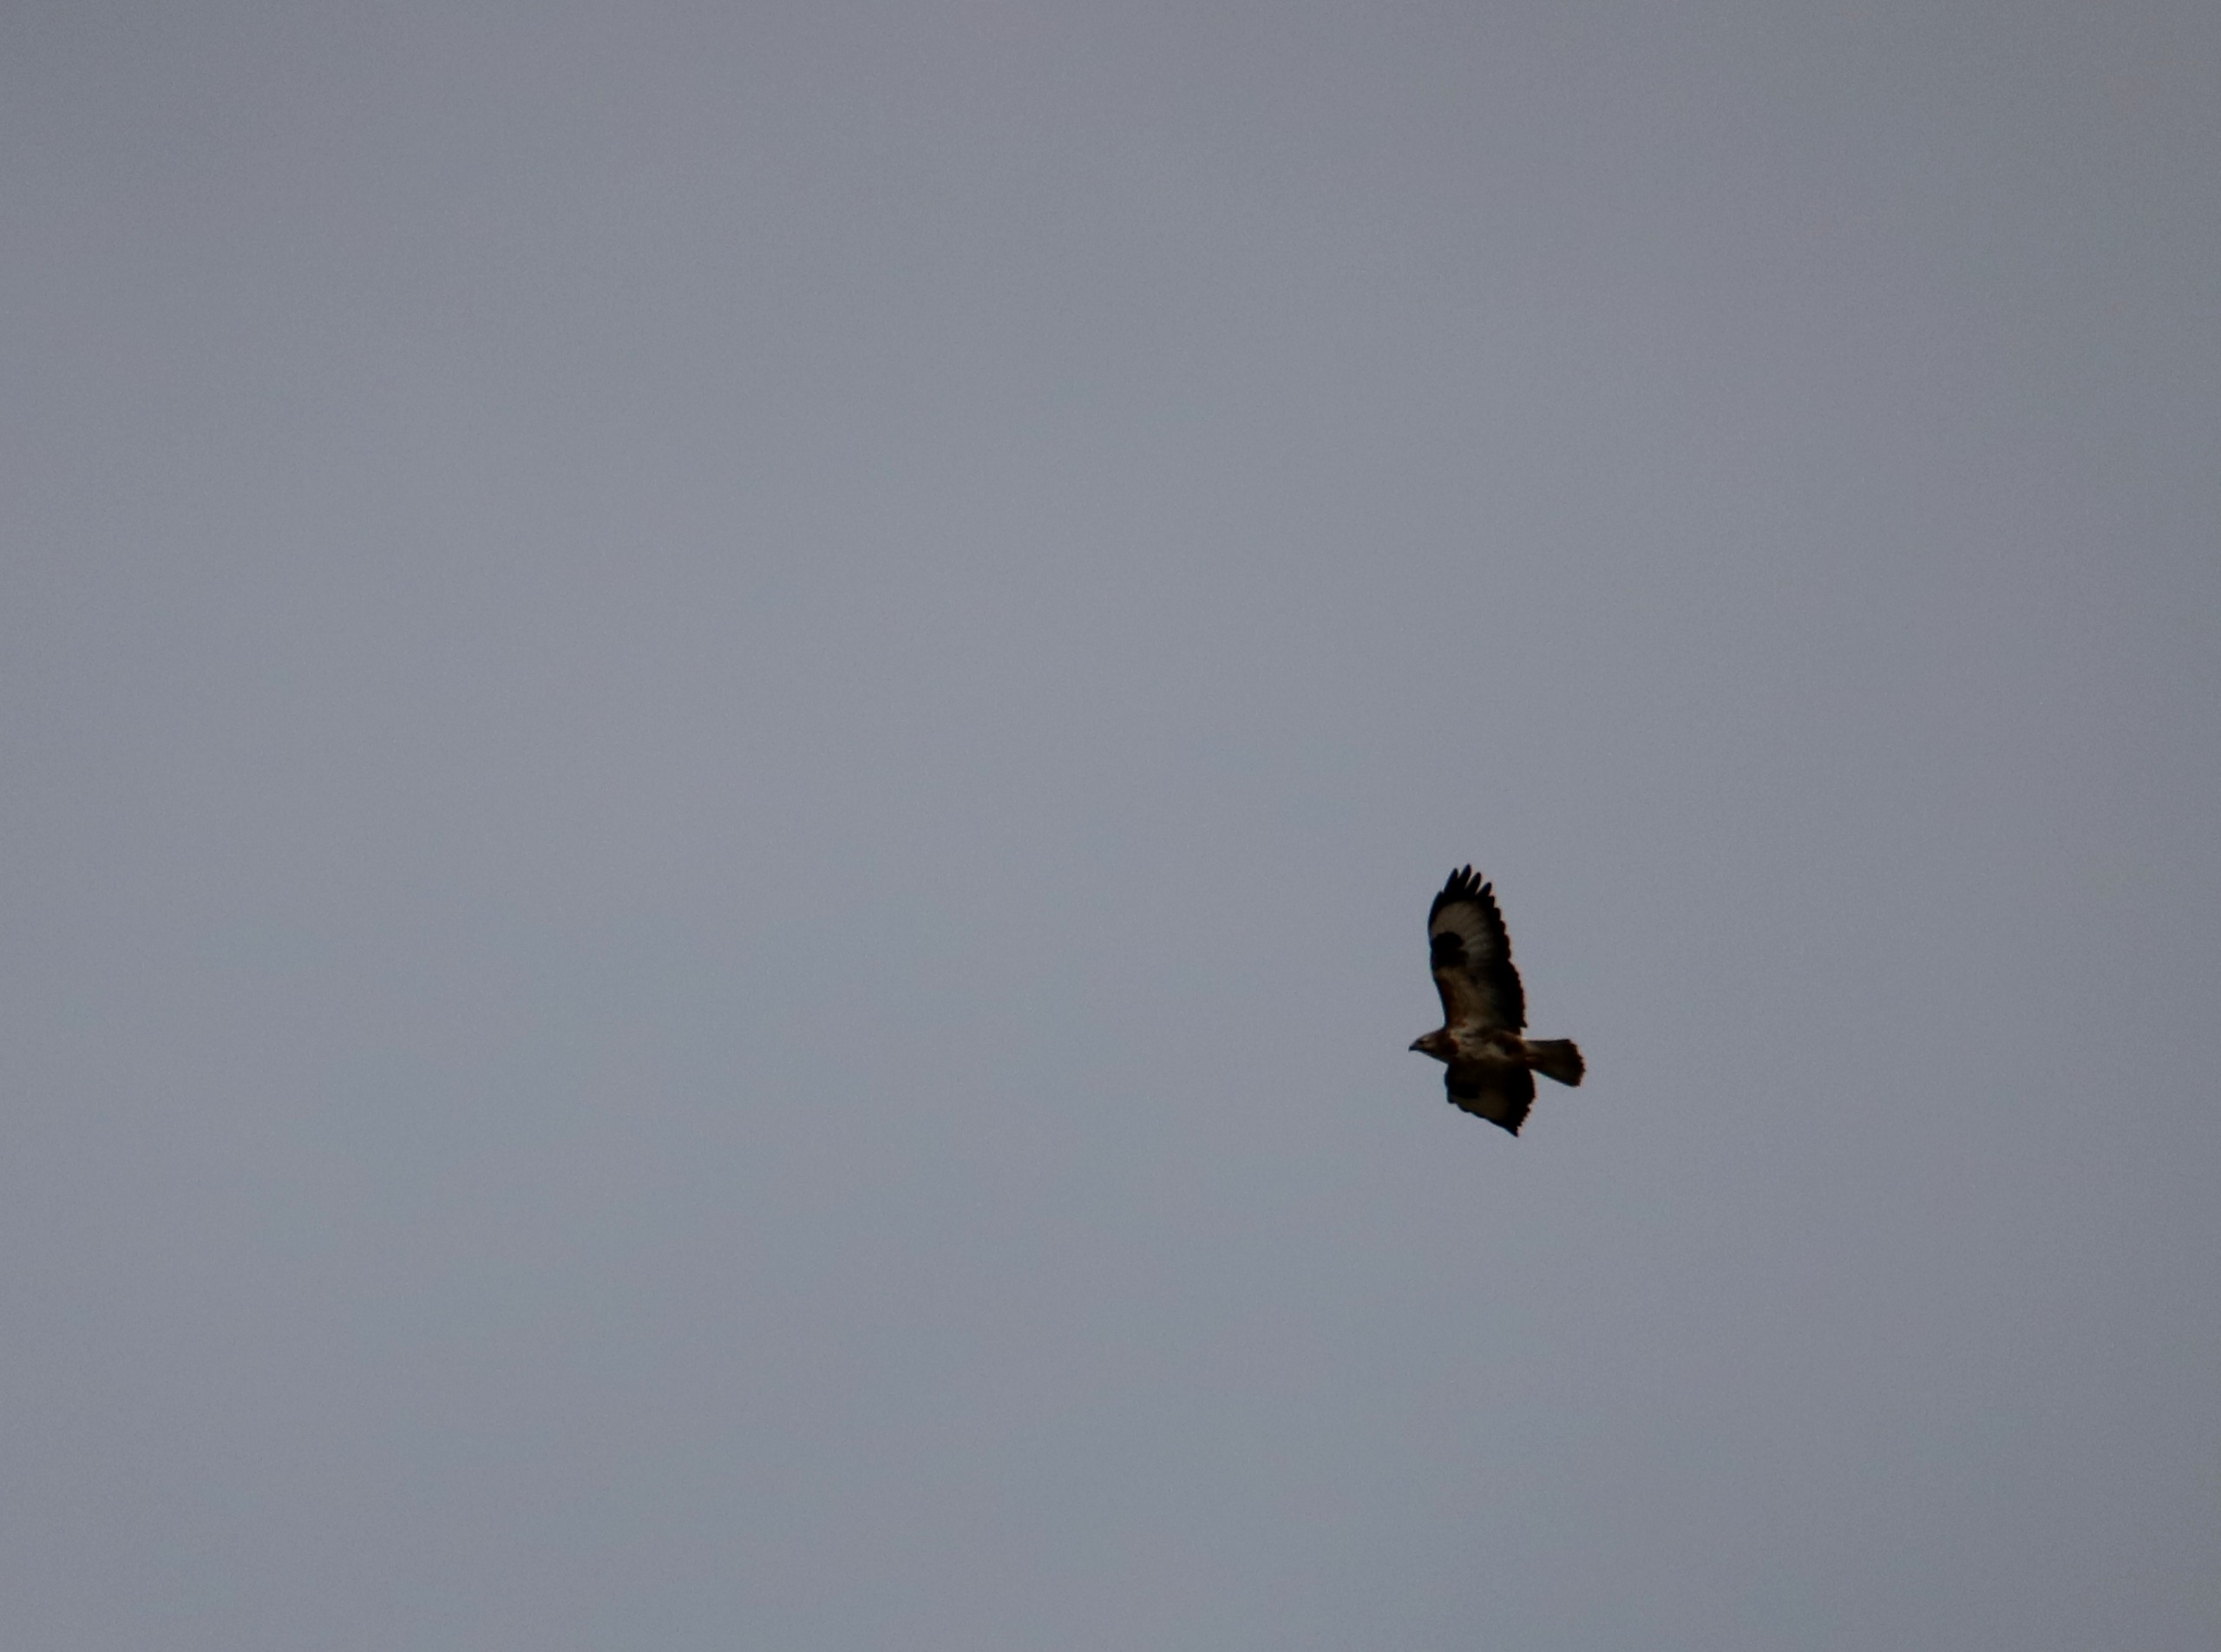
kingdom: Animalia
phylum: Chordata
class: Aves
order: Accipitriformes
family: Accipitridae
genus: Buteo
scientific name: Buteo buteo
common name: Musvåge
